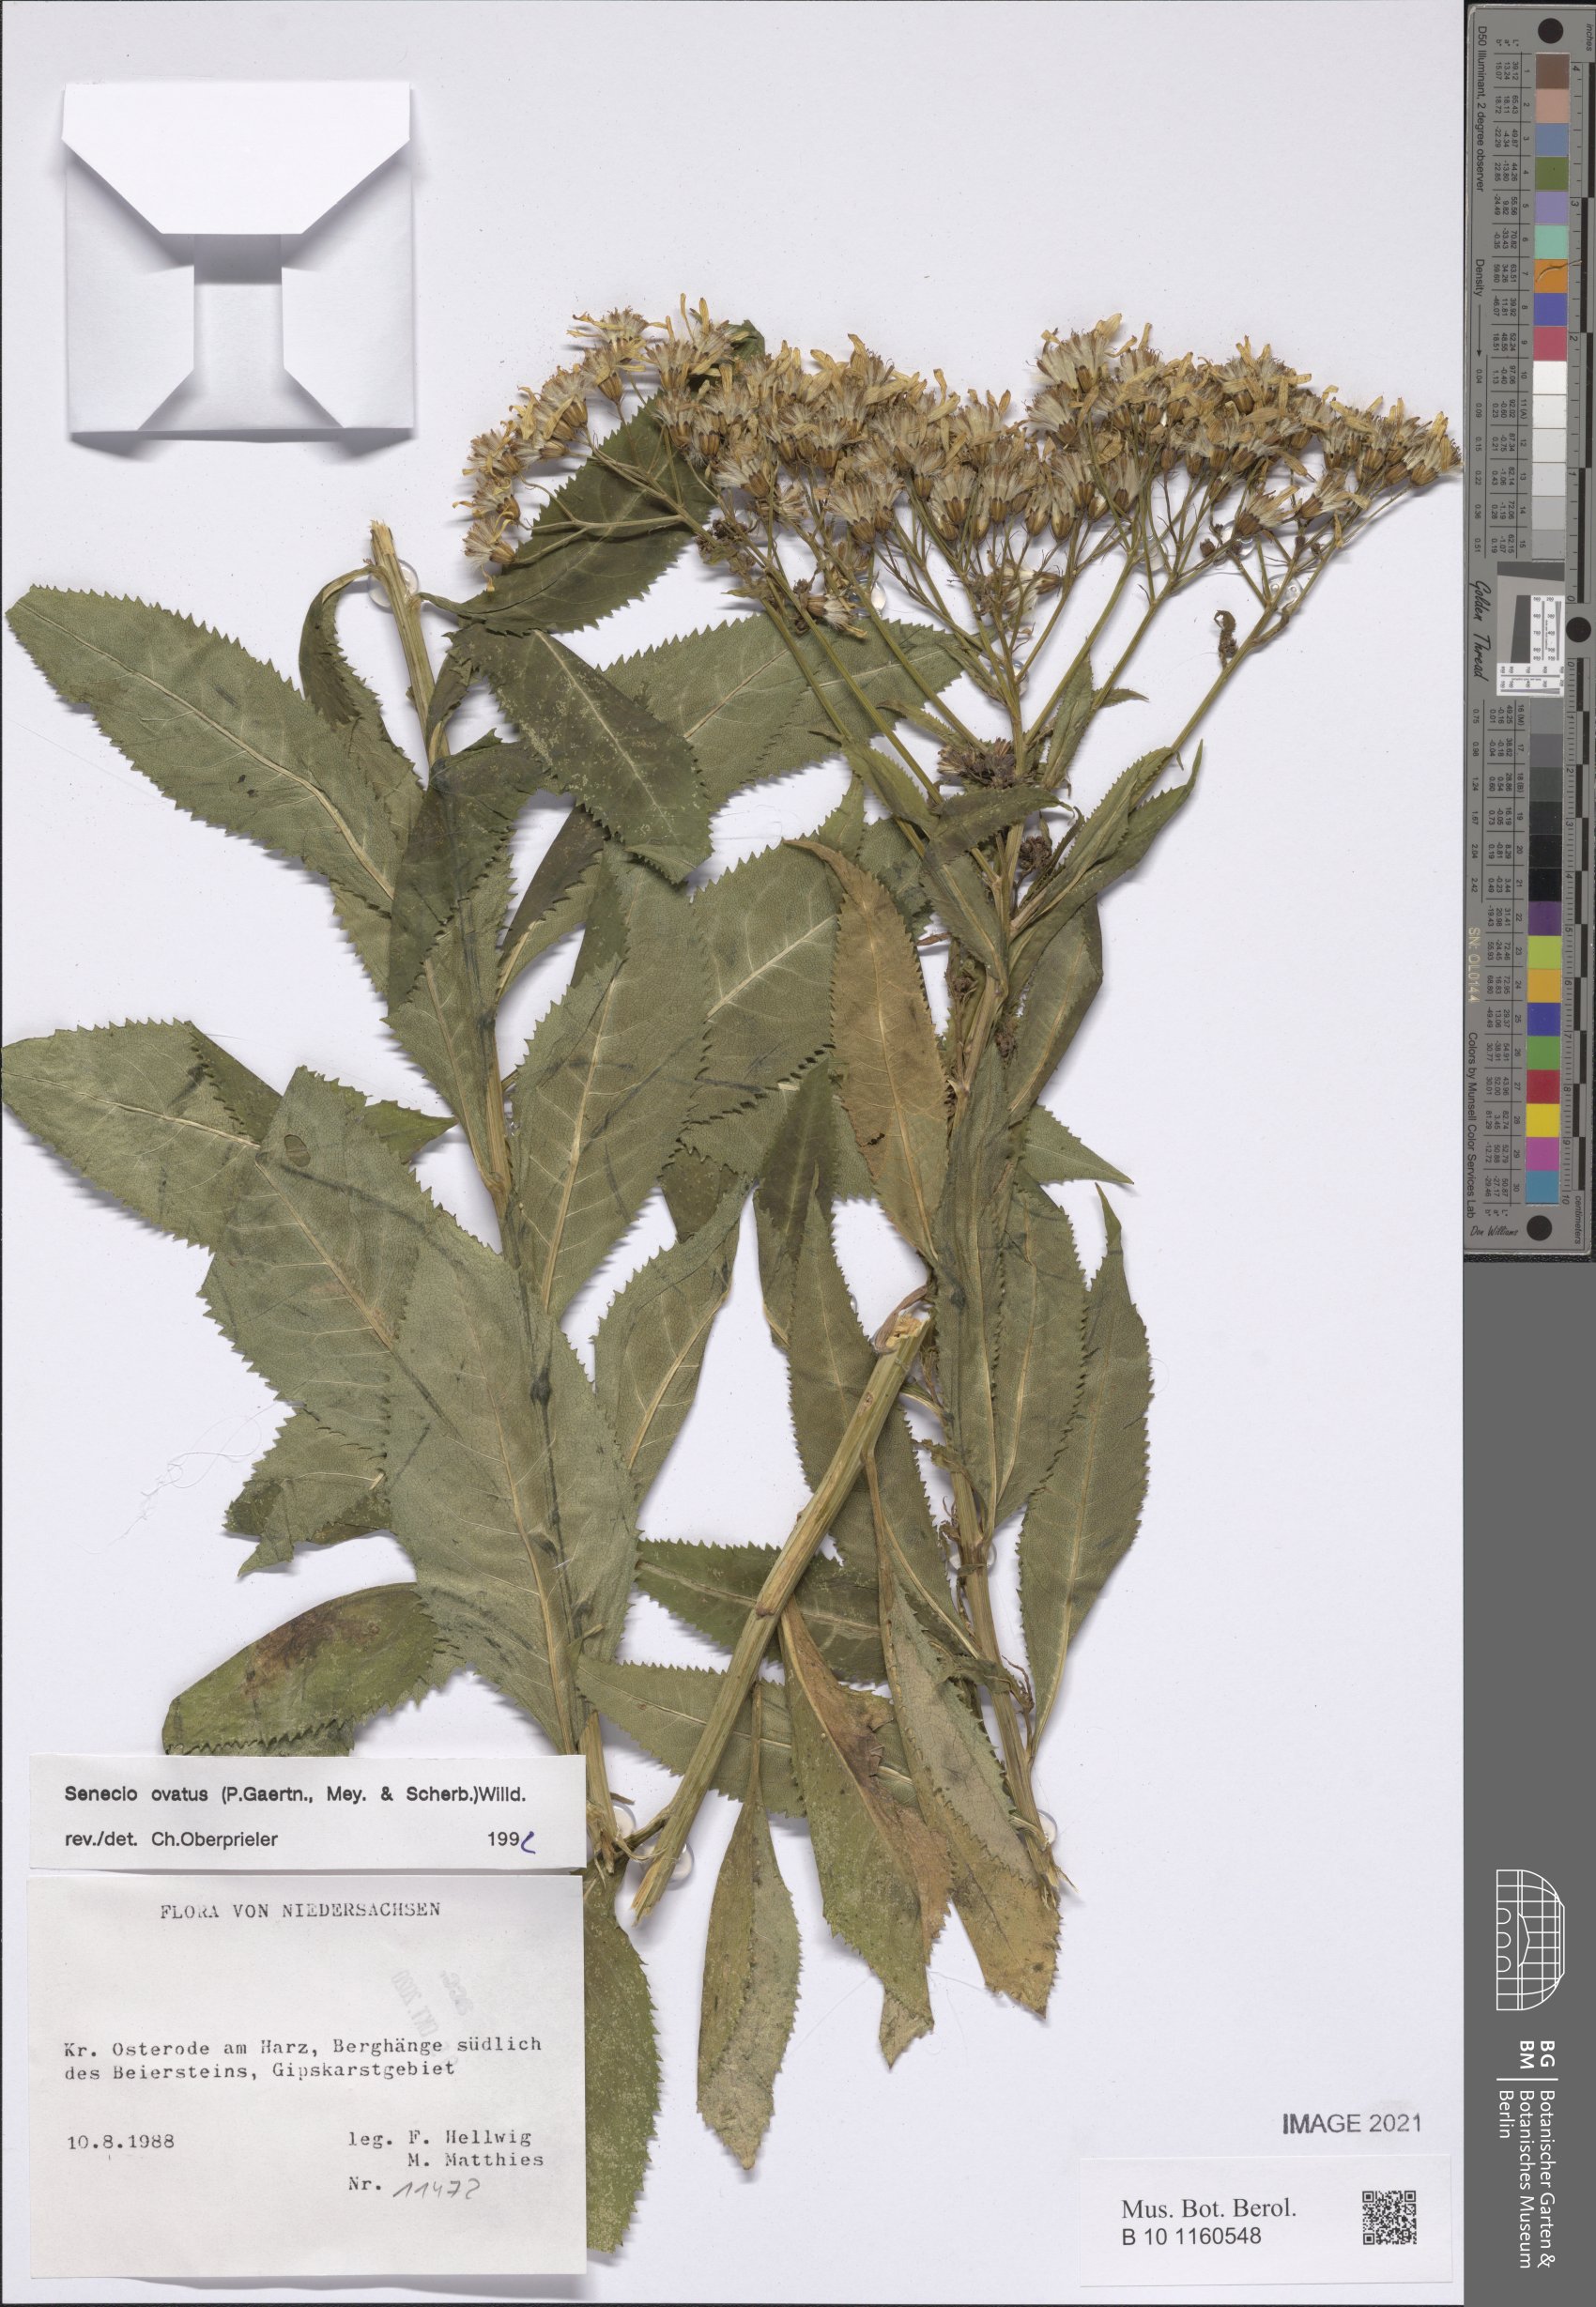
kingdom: Plantae
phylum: Tracheophyta
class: Magnoliopsida
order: Asterales
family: Asteraceae
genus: Senecio
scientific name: Senecio ovatus
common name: Wood ragwort
